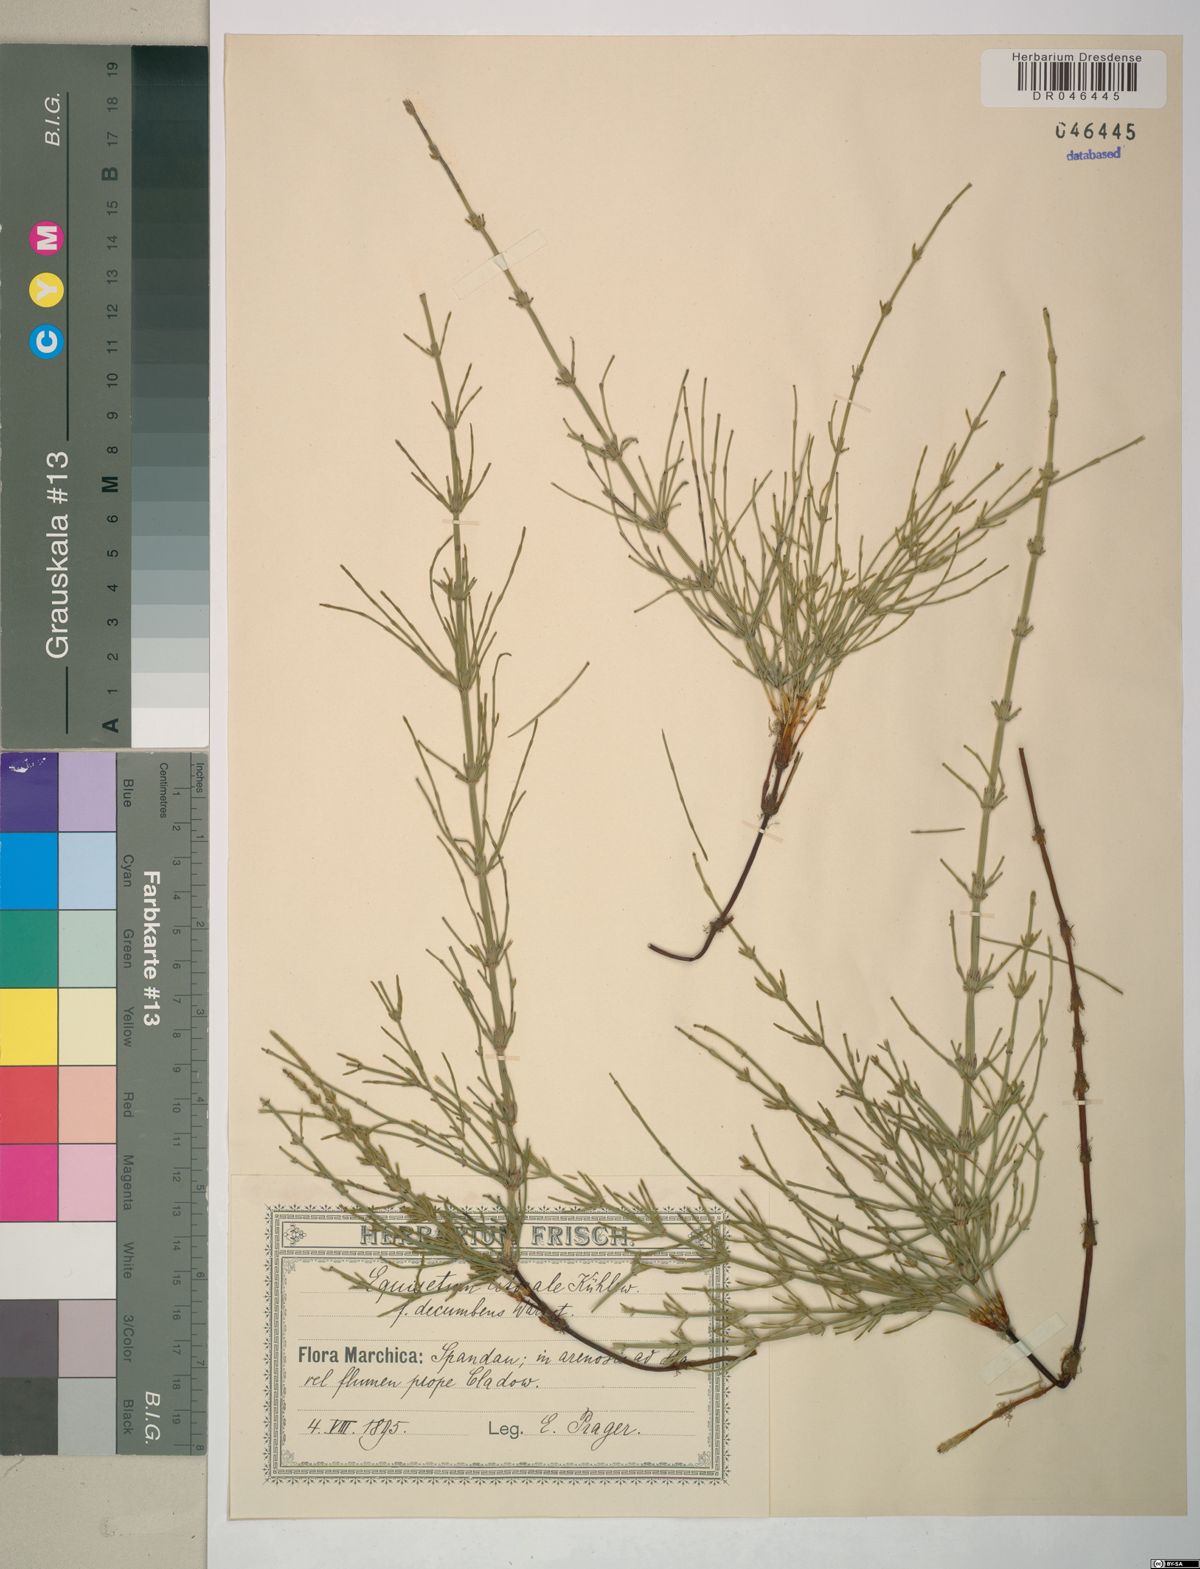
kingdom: Plantae
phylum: Tracheophyta
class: Polypodiopsida
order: Equisetales
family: Equisetaceae
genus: Equisetum
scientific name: Equisetum litorale
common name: Littoral horsetail
